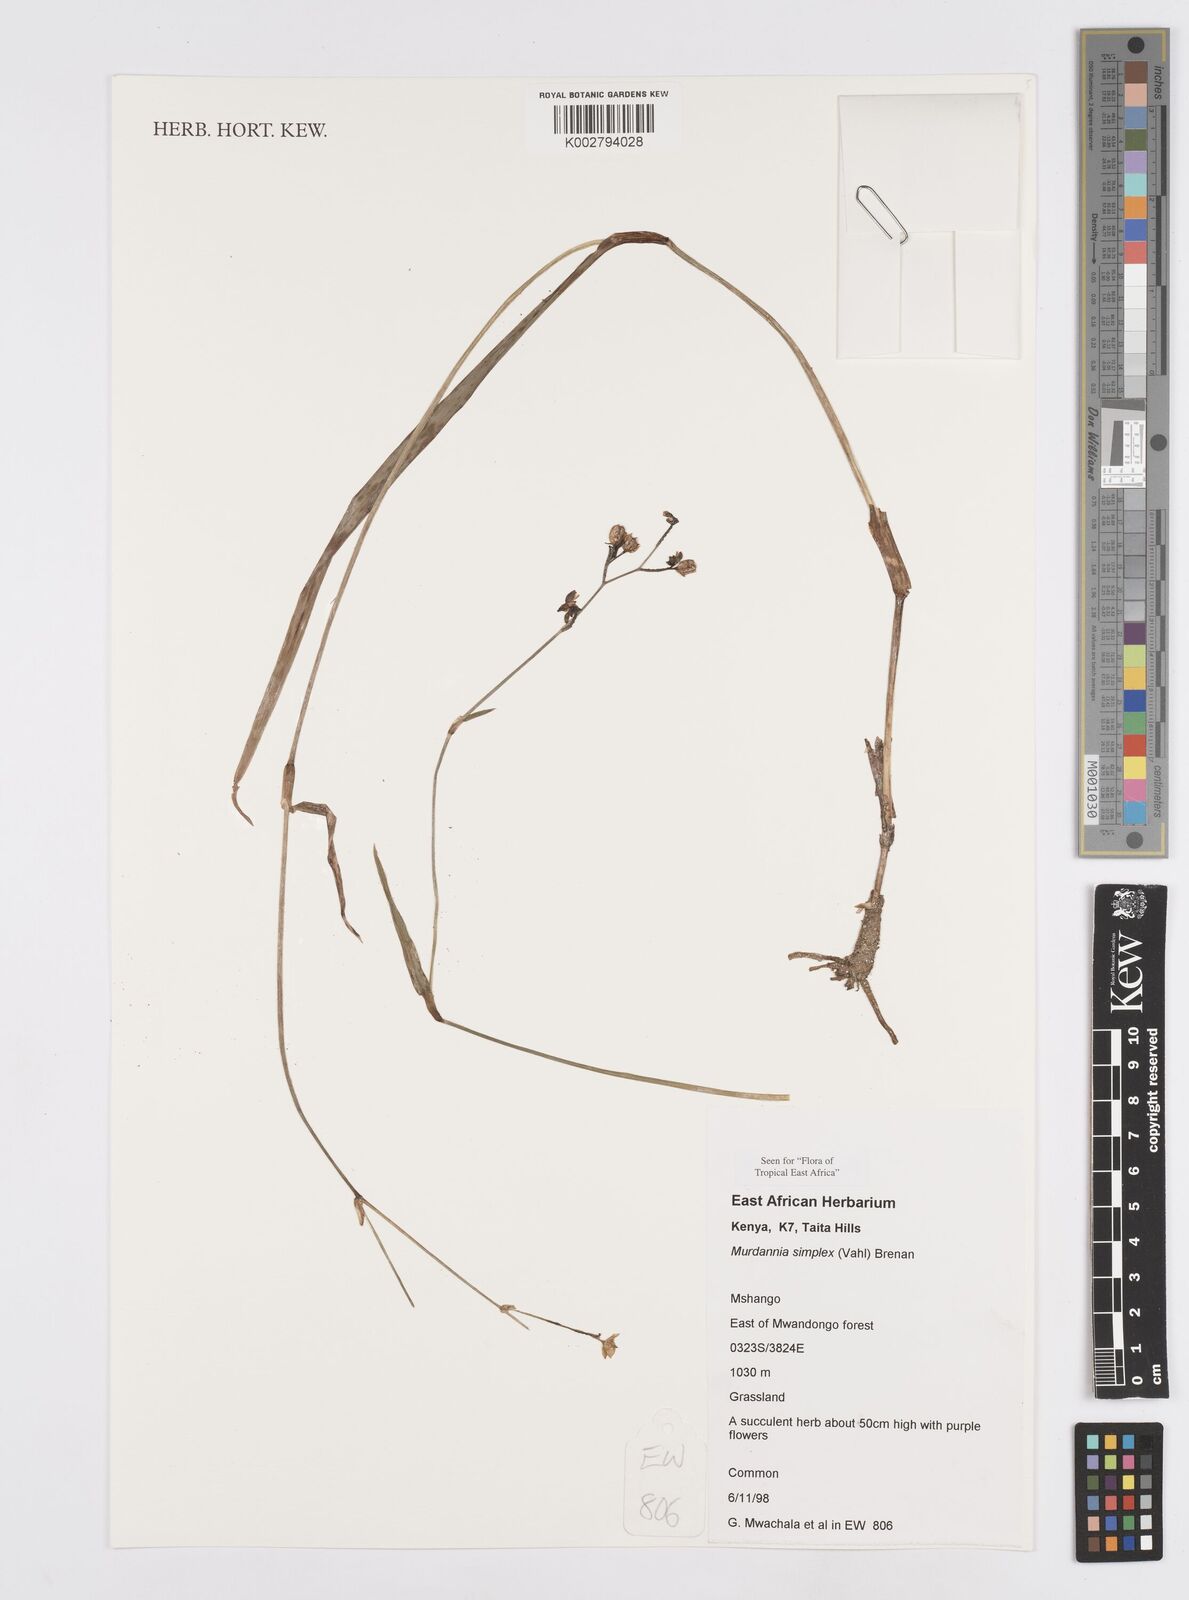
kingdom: Plantae
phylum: Tracheophyta
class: Liliopsida
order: Commelinales
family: Commelinaceae
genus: Murdannia
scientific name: Murdannia
